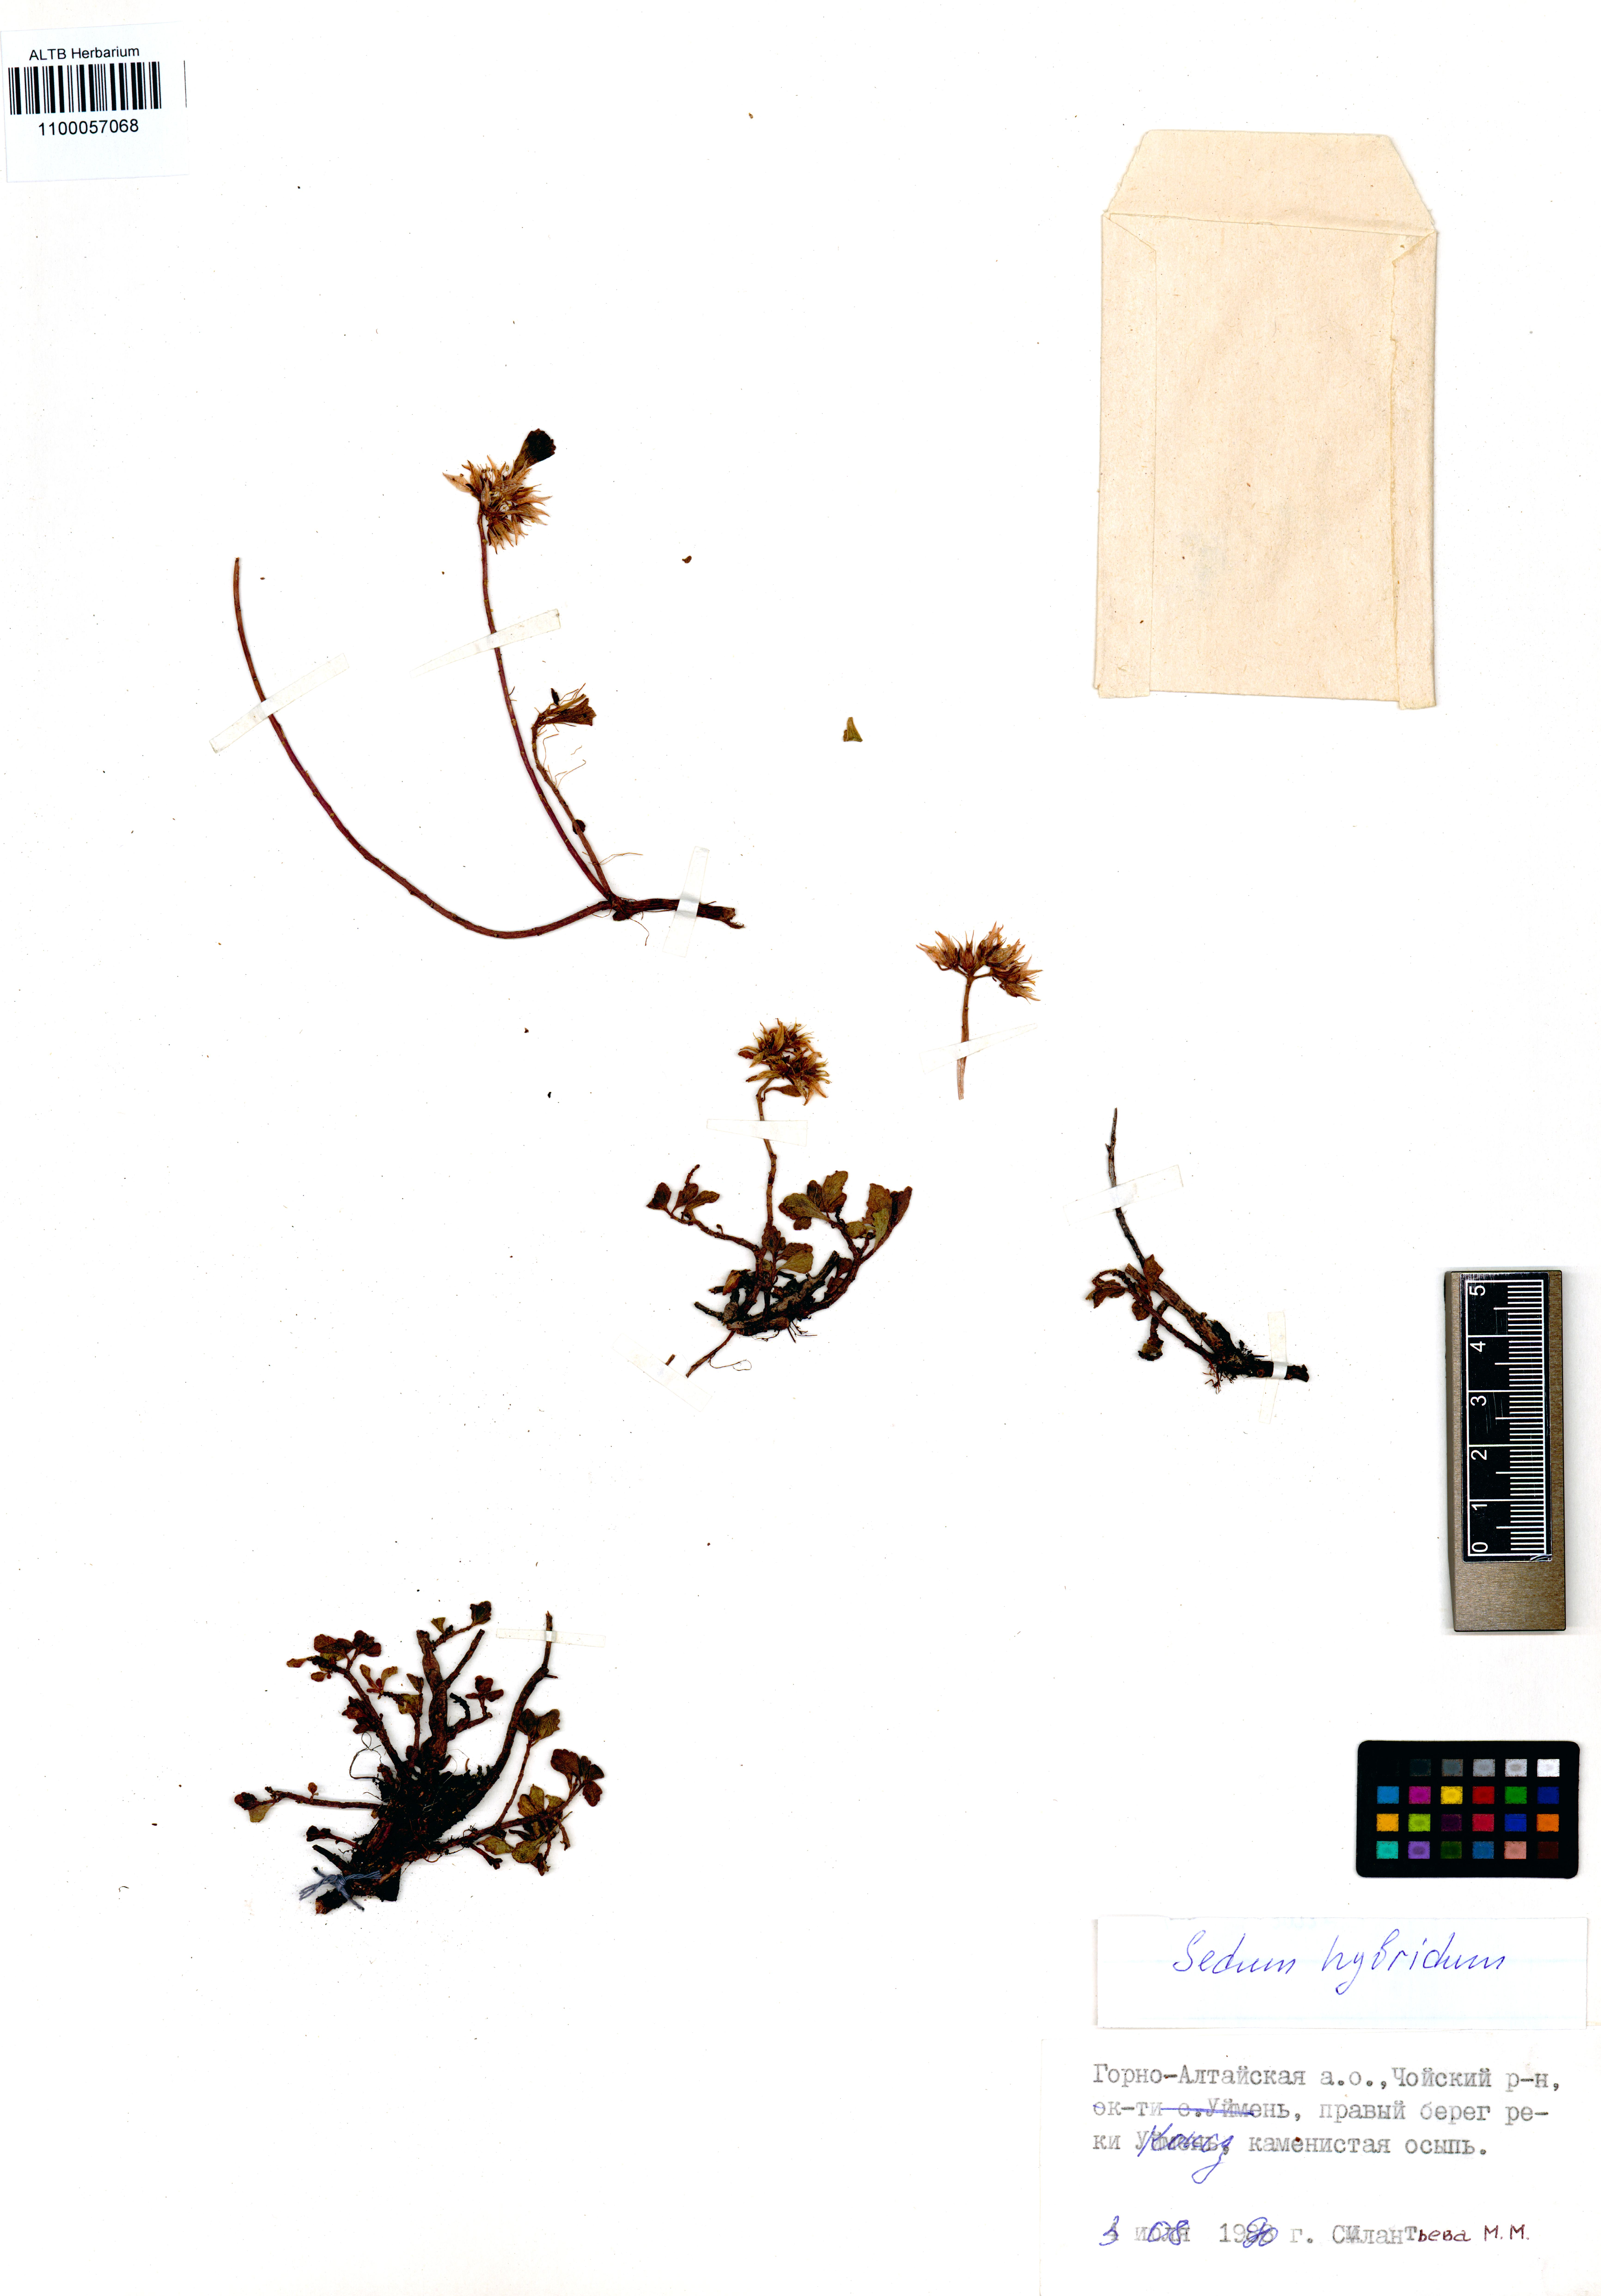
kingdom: Plantae
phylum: Tracheophyta
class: Magnoliopsida
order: Saxifragales
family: Crassulaceae
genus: Phedimus
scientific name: Phedimus hybridus
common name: Hybrid stonecrop
